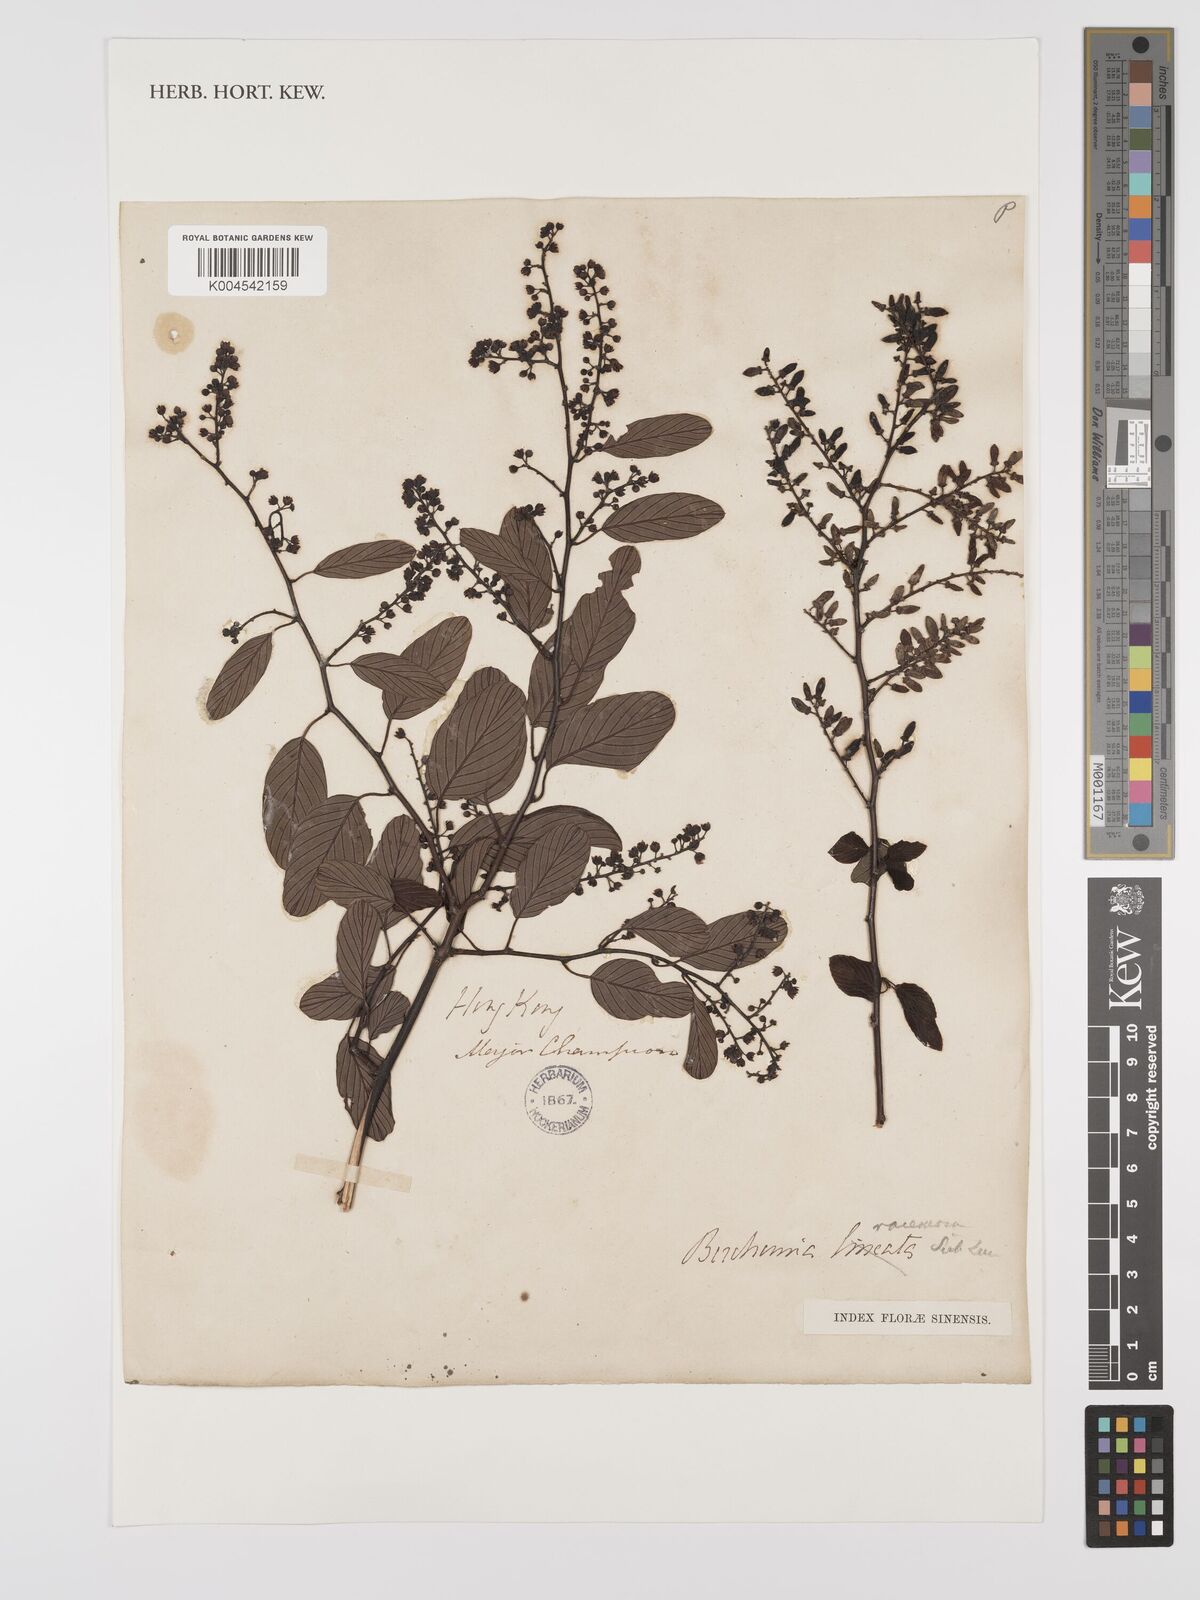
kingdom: Plantae
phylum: Tracheophyta
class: Magnoliopsida
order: Rosales
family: Rhamnaceae
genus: Berchemia
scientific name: Berchemia floribunda
